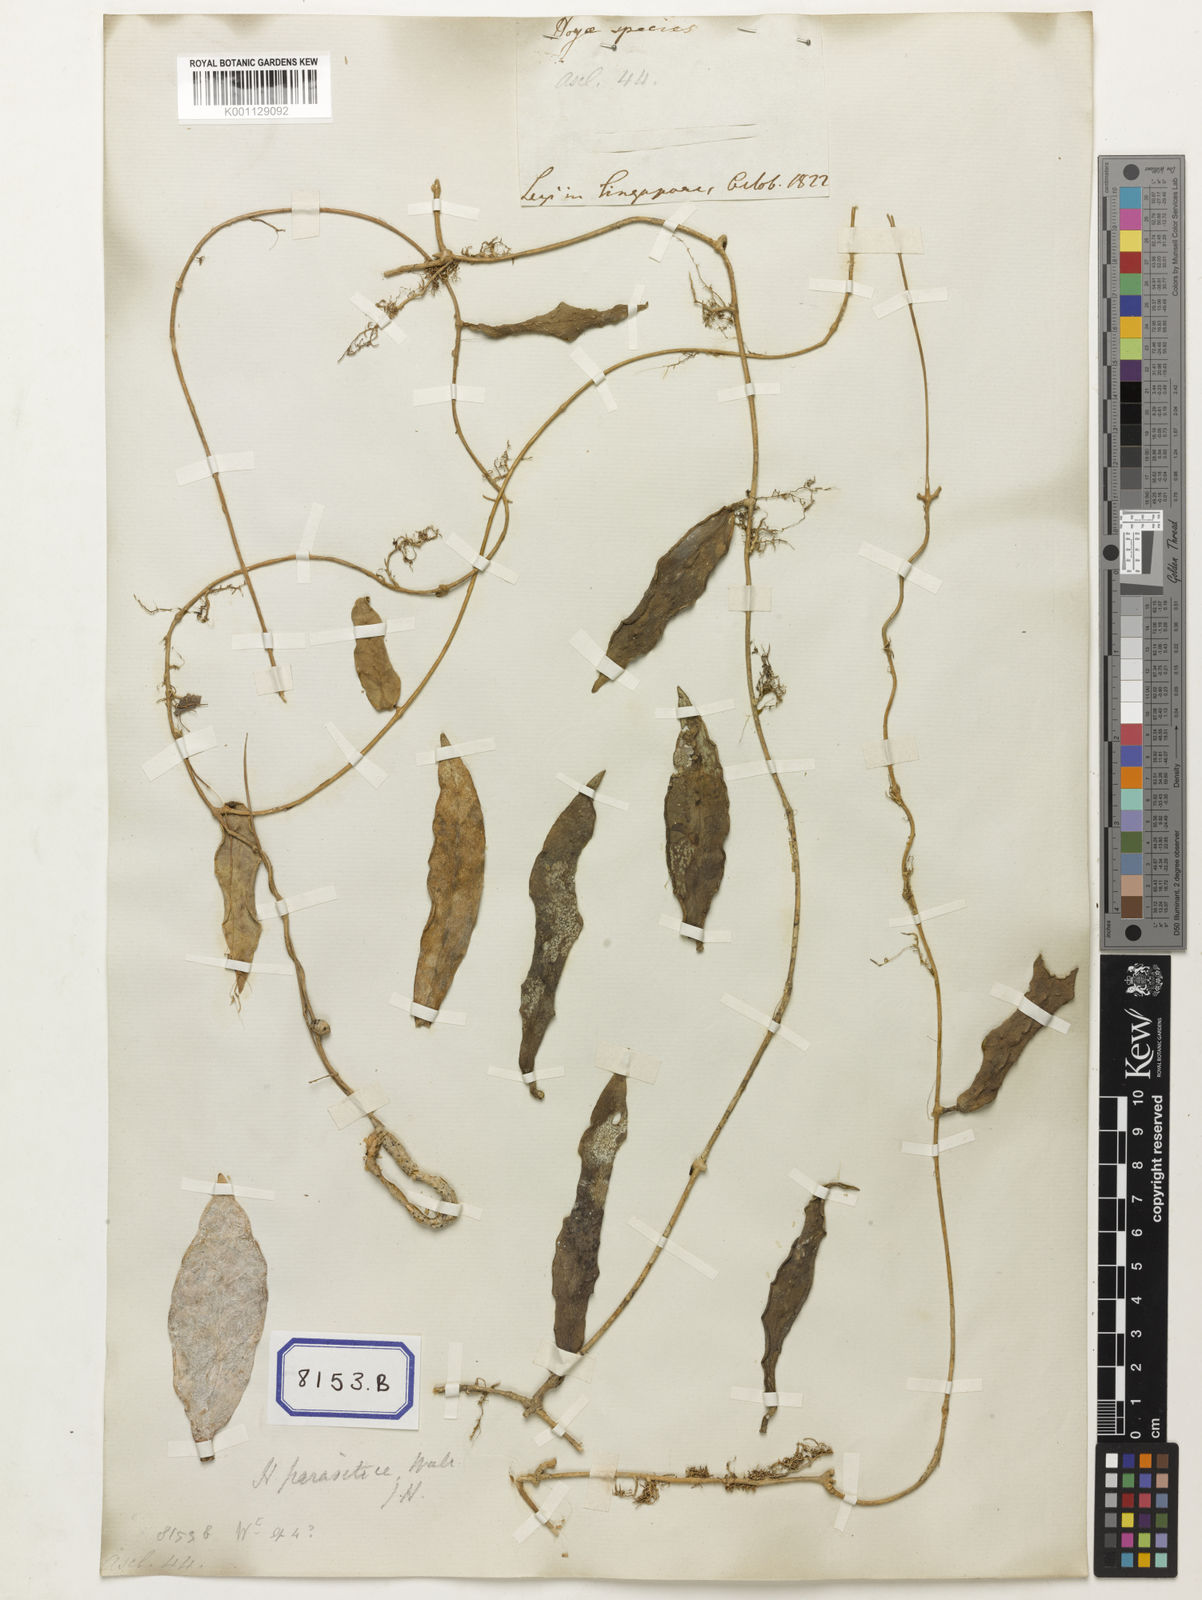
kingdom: Plantae
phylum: Tracheophyta
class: Magnoliopsida
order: Gentianales
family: Apocynaceae
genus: Hoya
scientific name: Hoya
